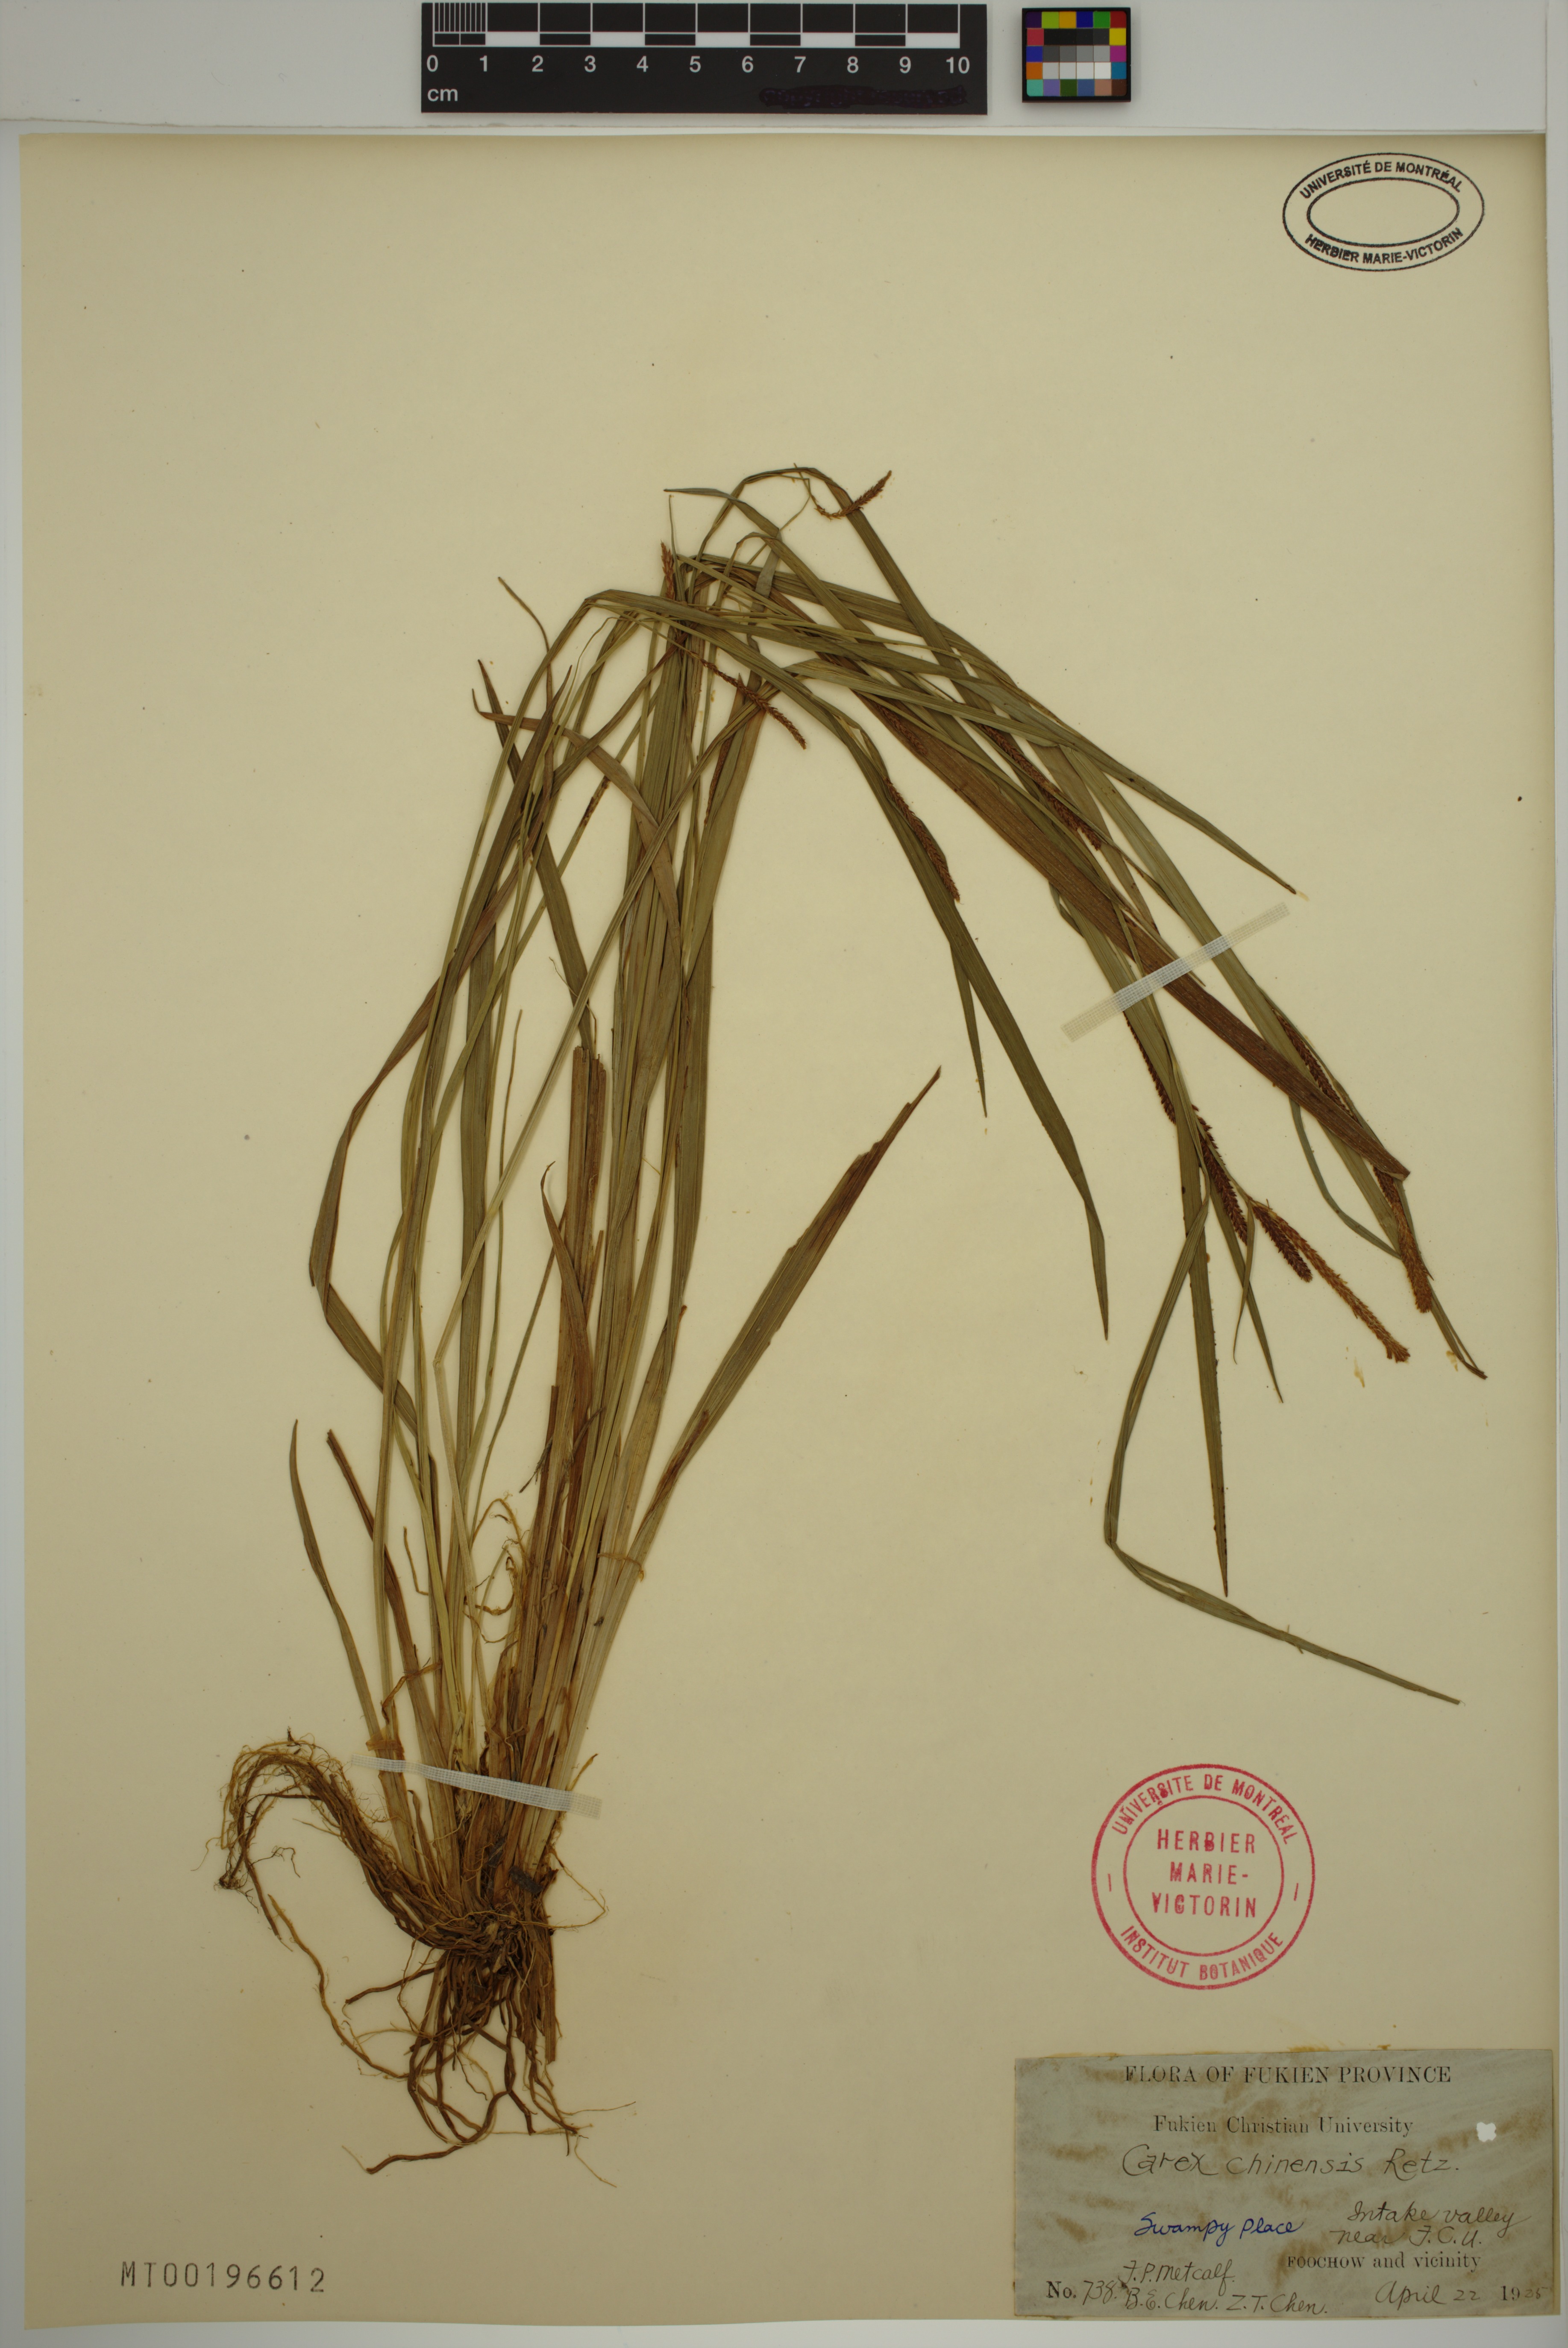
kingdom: Plantae
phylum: Tracheophyta
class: Liliopsida
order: Poales
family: Cyperaceae
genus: Carex
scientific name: Carex chinensis
